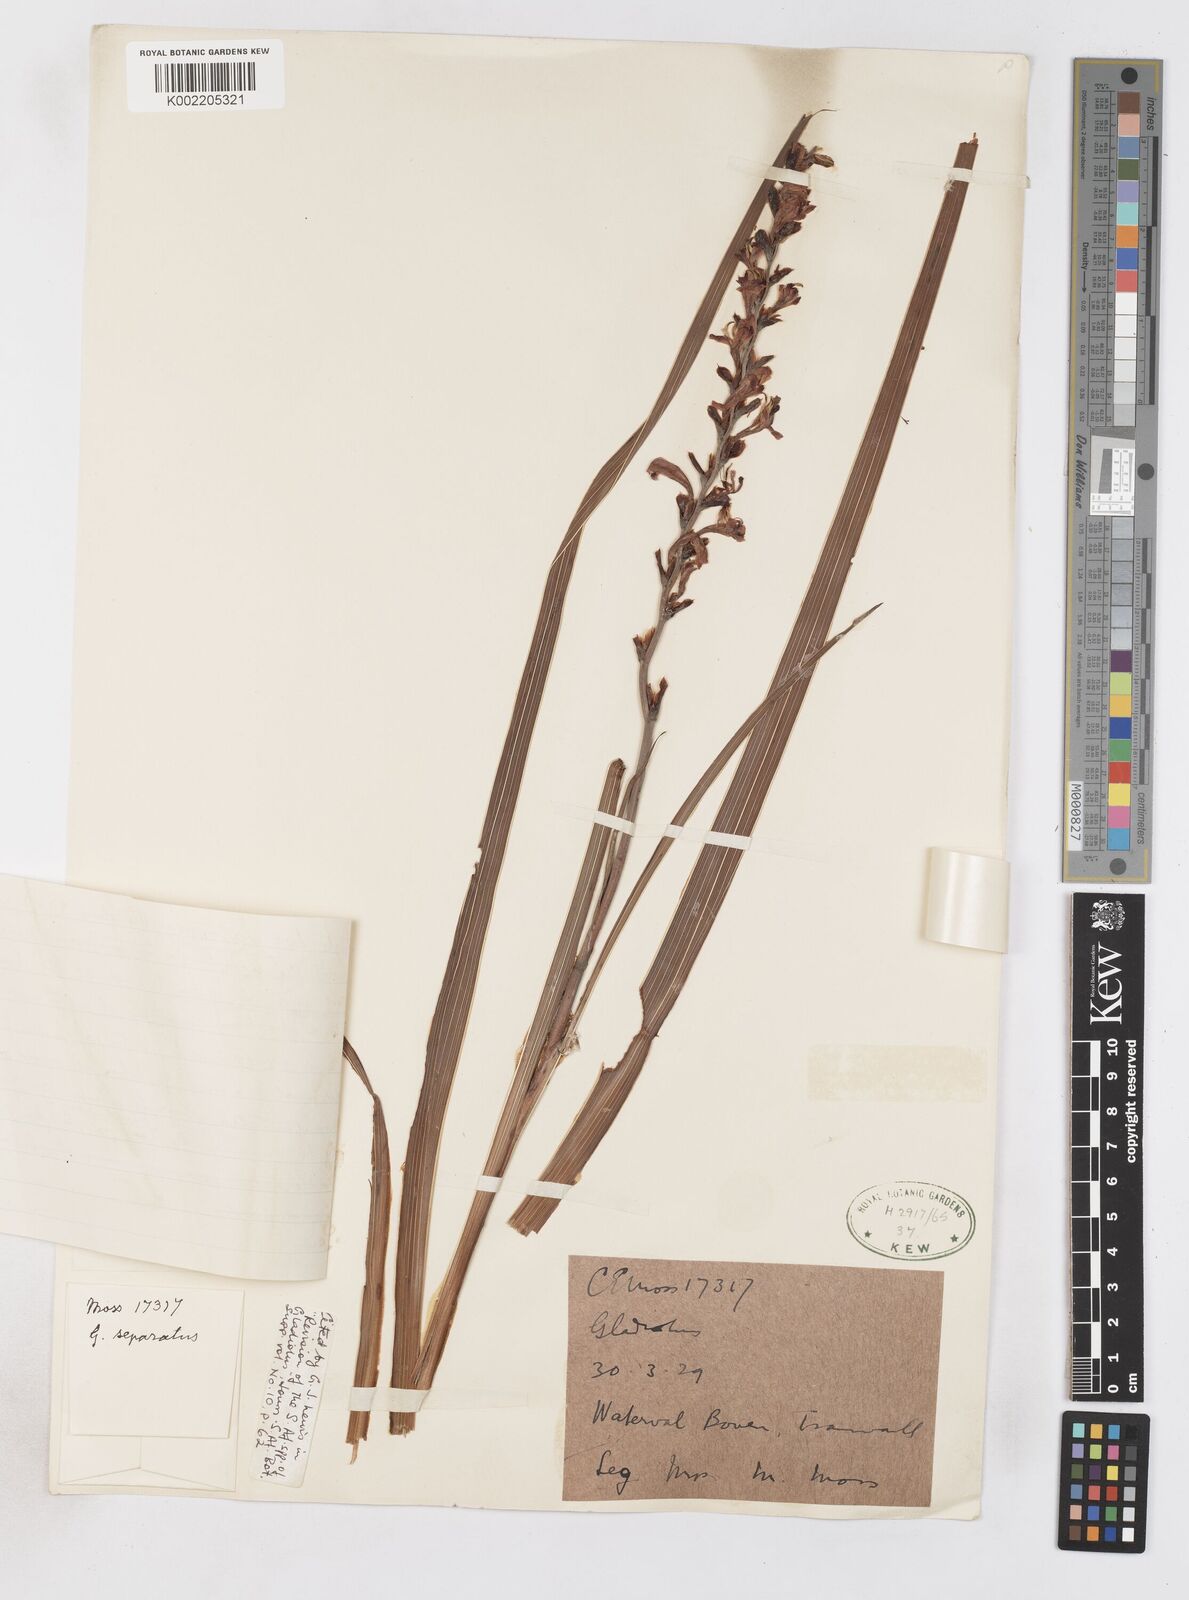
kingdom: Plantae
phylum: Tracheophyta
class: Liliopsida
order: Asparagales
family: Iridaceae
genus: Gladiolus
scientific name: Gladiolus crassifolius
